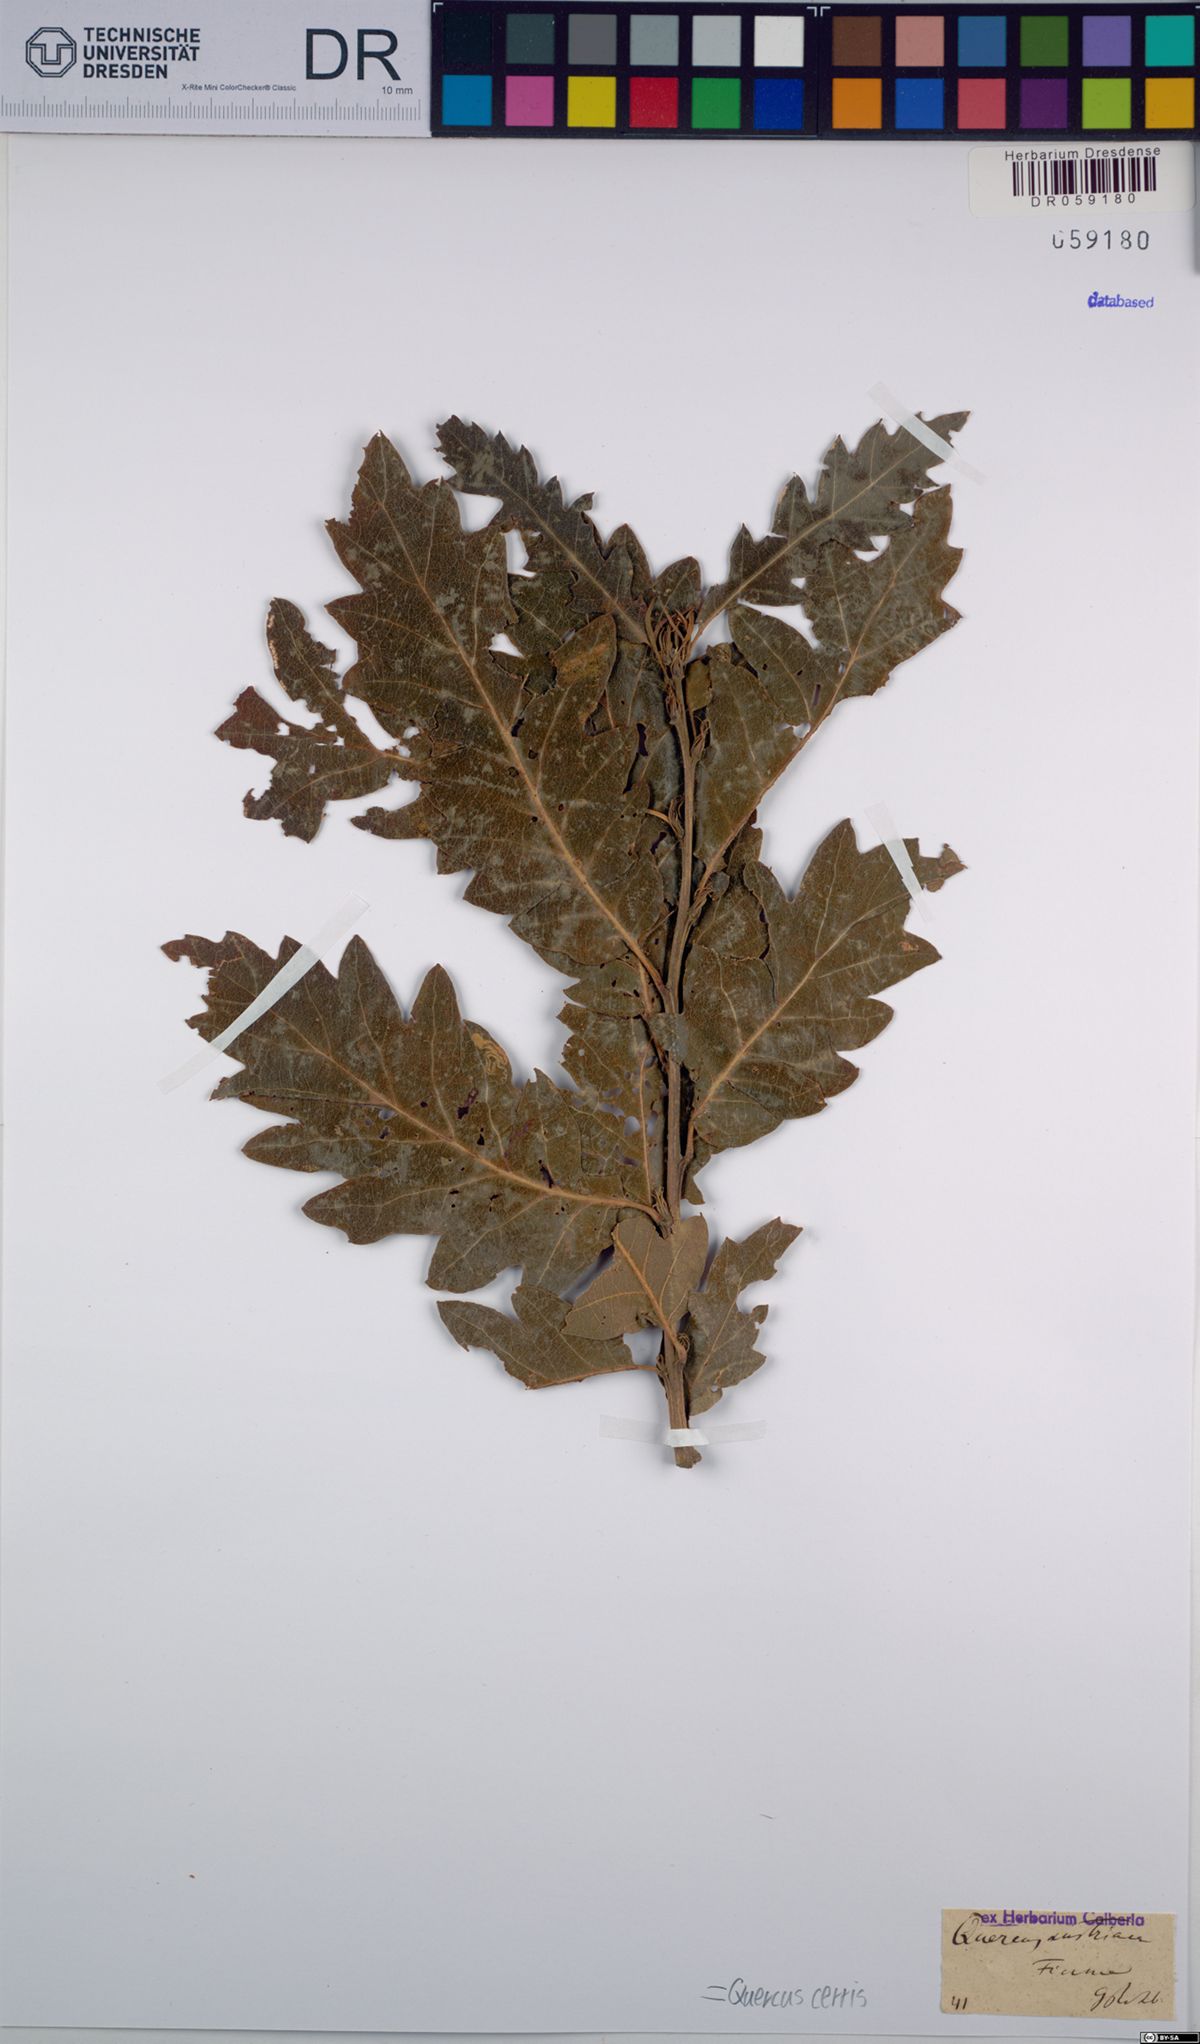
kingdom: Plantae
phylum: Tracheophyta
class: Magnoliopsida
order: Fagales
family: Fagaceae
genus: Quercus
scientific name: Quercus cerris
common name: Turkey oak
